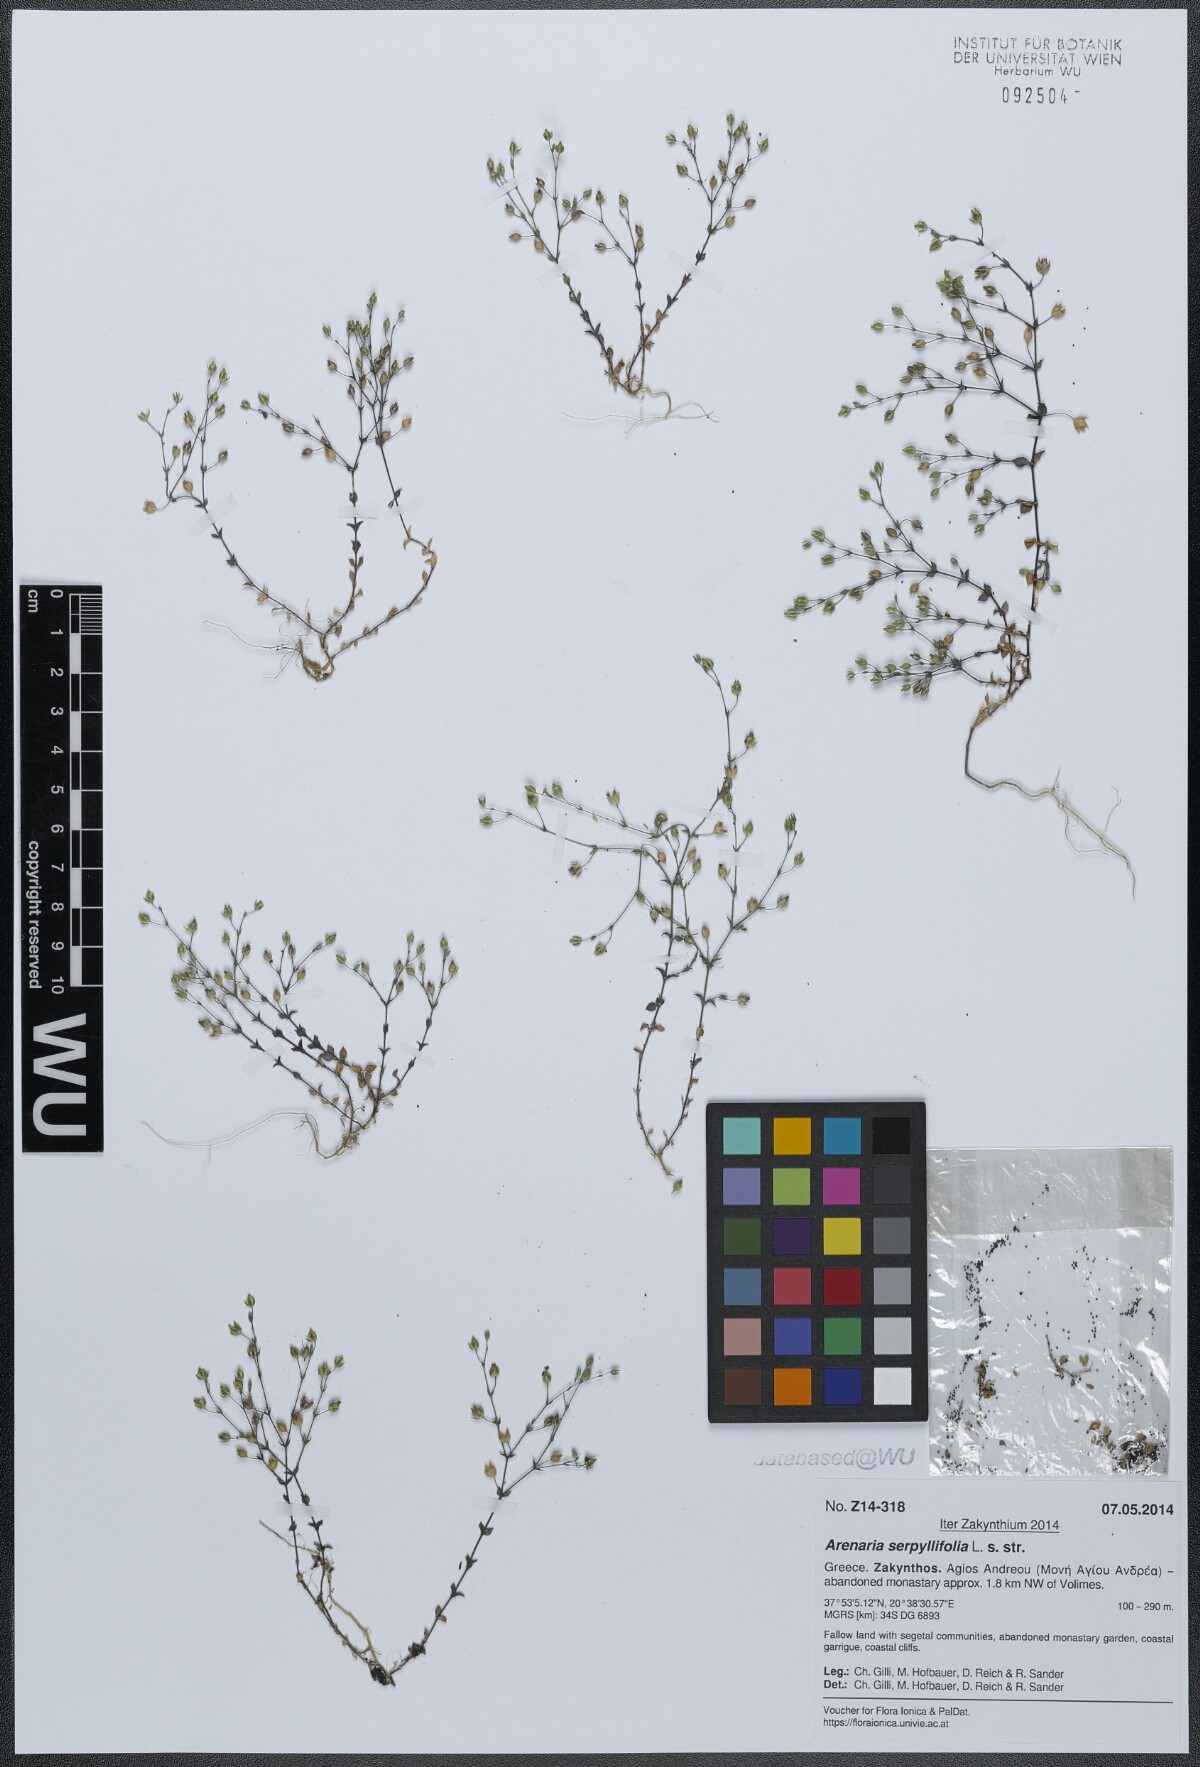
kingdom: Plantae
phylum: Tracheophyta
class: Magnoliopsida
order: Caryophyllales
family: Caryophyllaceae
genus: Arenaria
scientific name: Arenaria serpyllifolia
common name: Thyme-leaved sandwort
